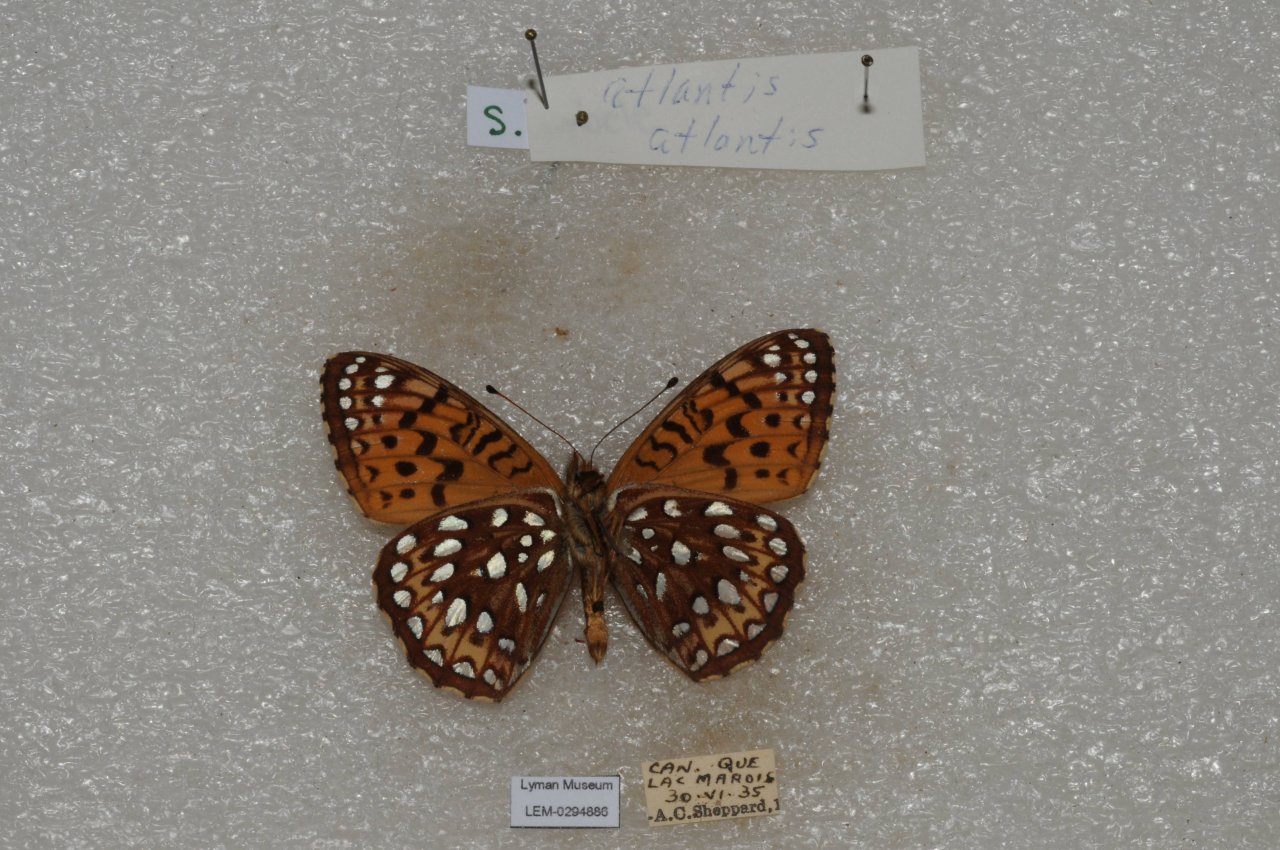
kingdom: Animalia
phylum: Arthropoda
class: Insecta
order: Lepidoptera
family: Nymphalidae
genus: Speyeria
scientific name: Speyeria atlantis
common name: Atlantis Fritillary
